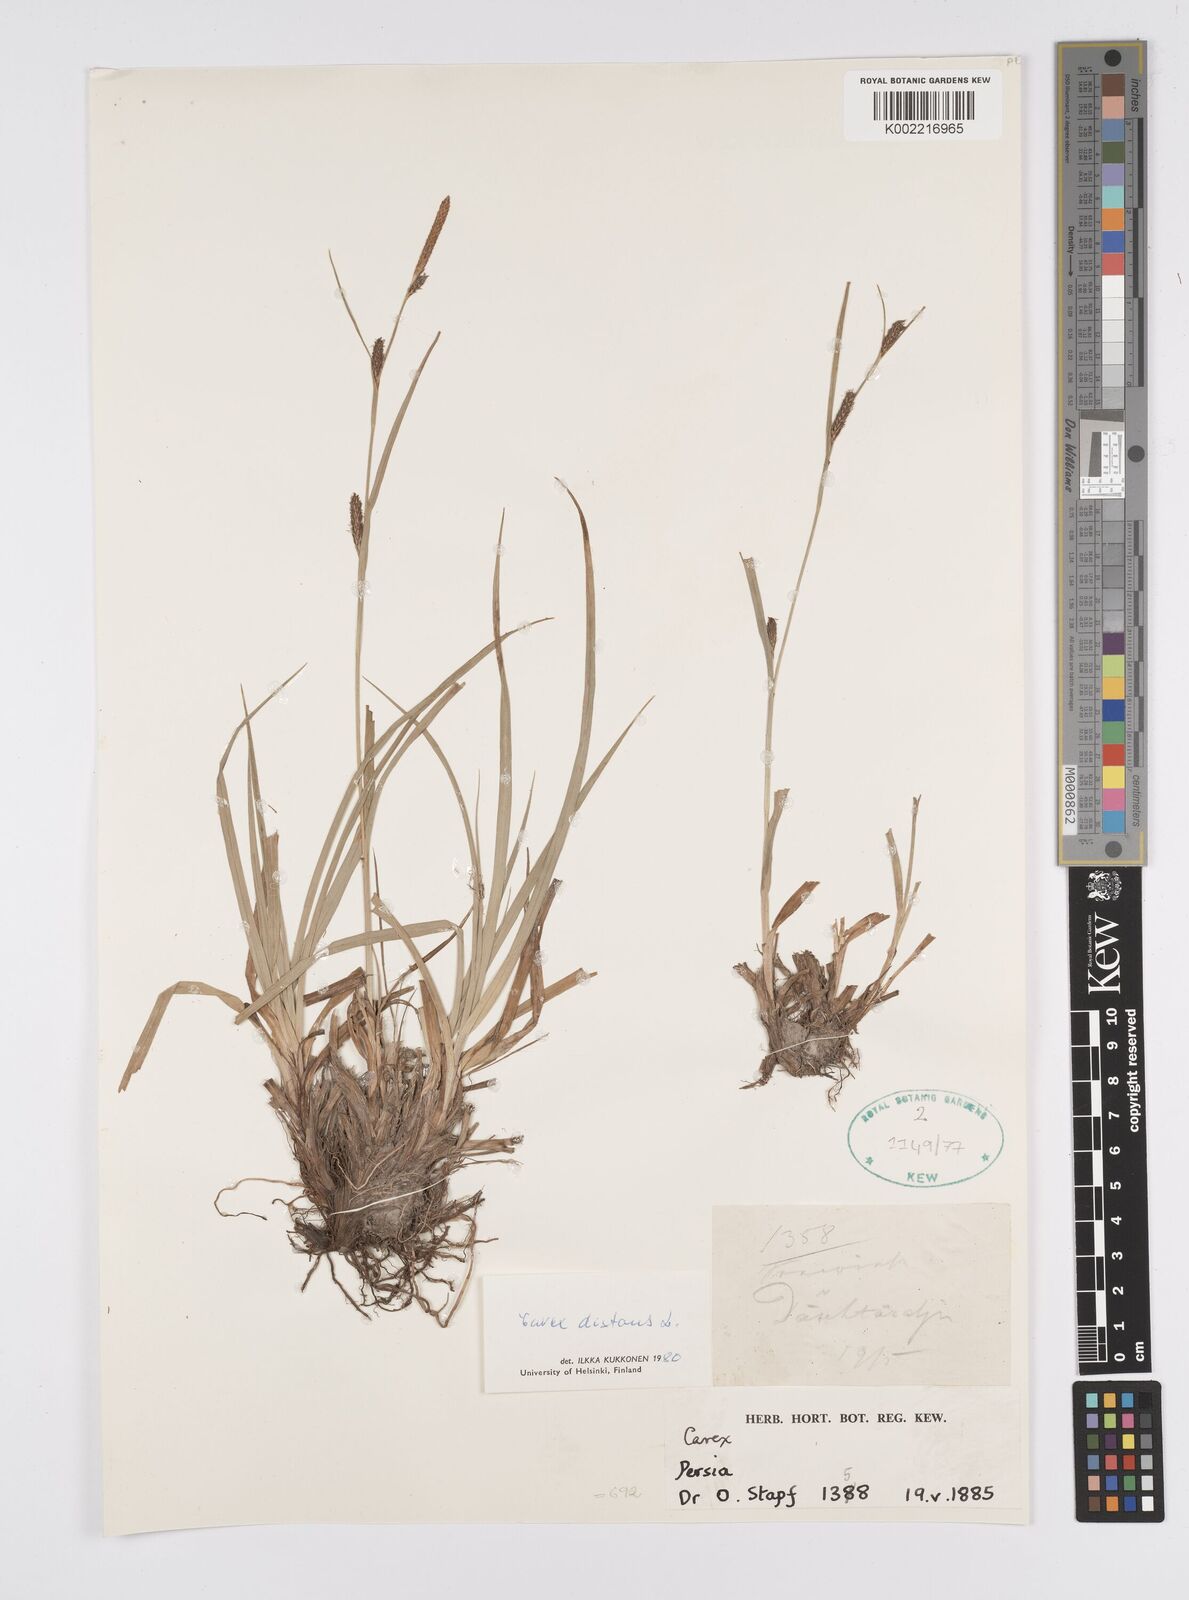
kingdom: Plantae
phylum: Tracheophyta
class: Liliopsida
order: Poales
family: Cyperaceae
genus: Carex
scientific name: Carex distans
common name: Distant sedge
